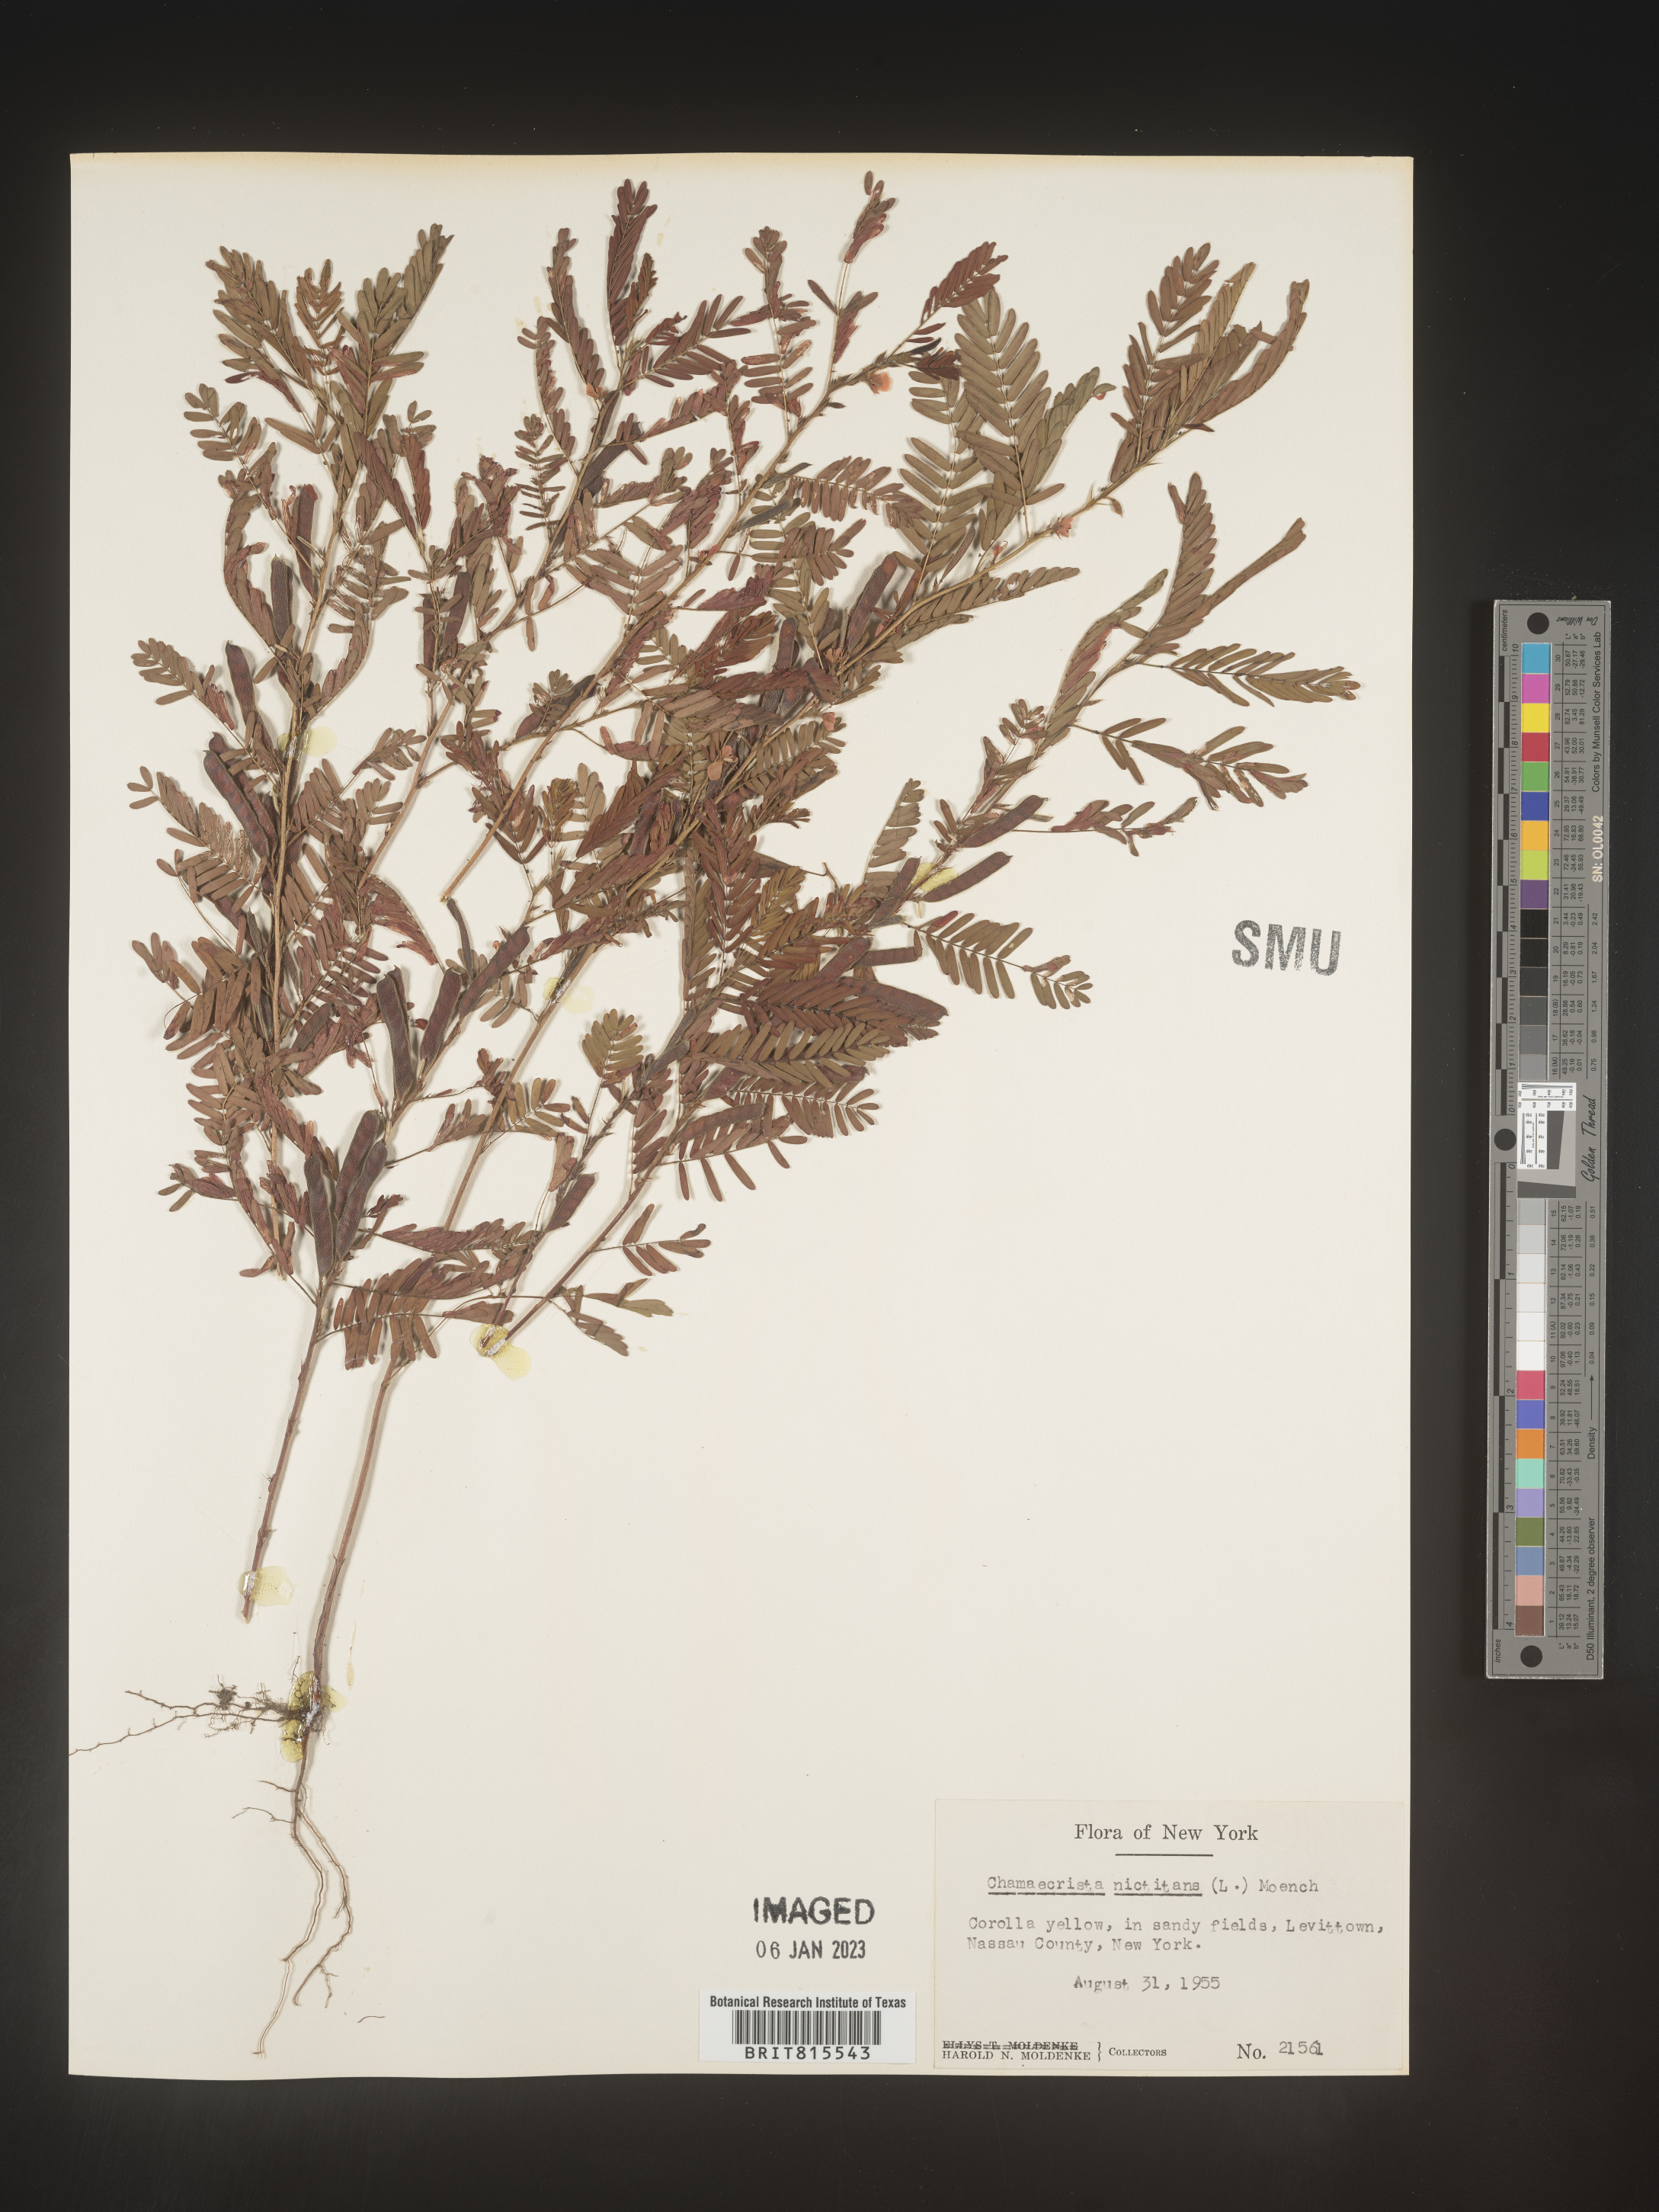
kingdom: Plantae
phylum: Tracheophyta
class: Magnoliopsida
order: Fabales
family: Fabaceae
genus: Chamaecrista
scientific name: Chamaecrista nictitans
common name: Sensitive cassia
